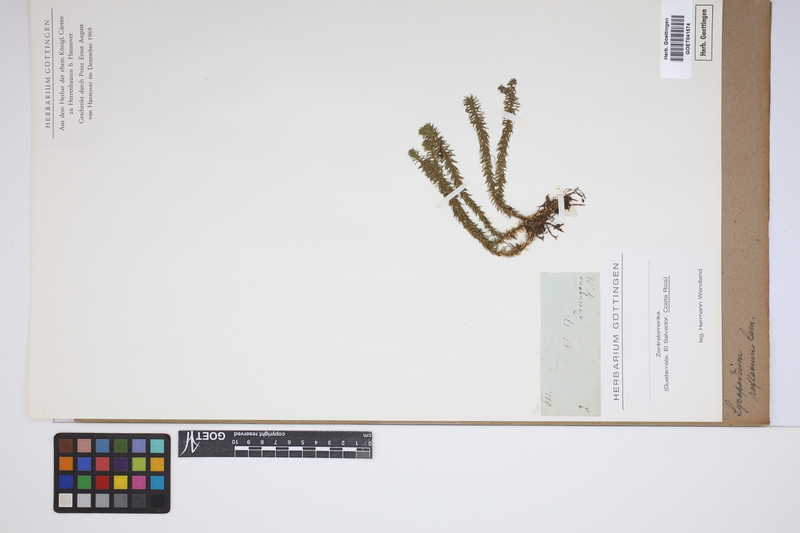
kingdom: Plantae
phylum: Tracheophyta
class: Lycopodiopsida
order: Lycopodiales
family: Lycopodiaceae
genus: Huperzia
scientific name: Huperzia lucidula
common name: Shining clubmoss
